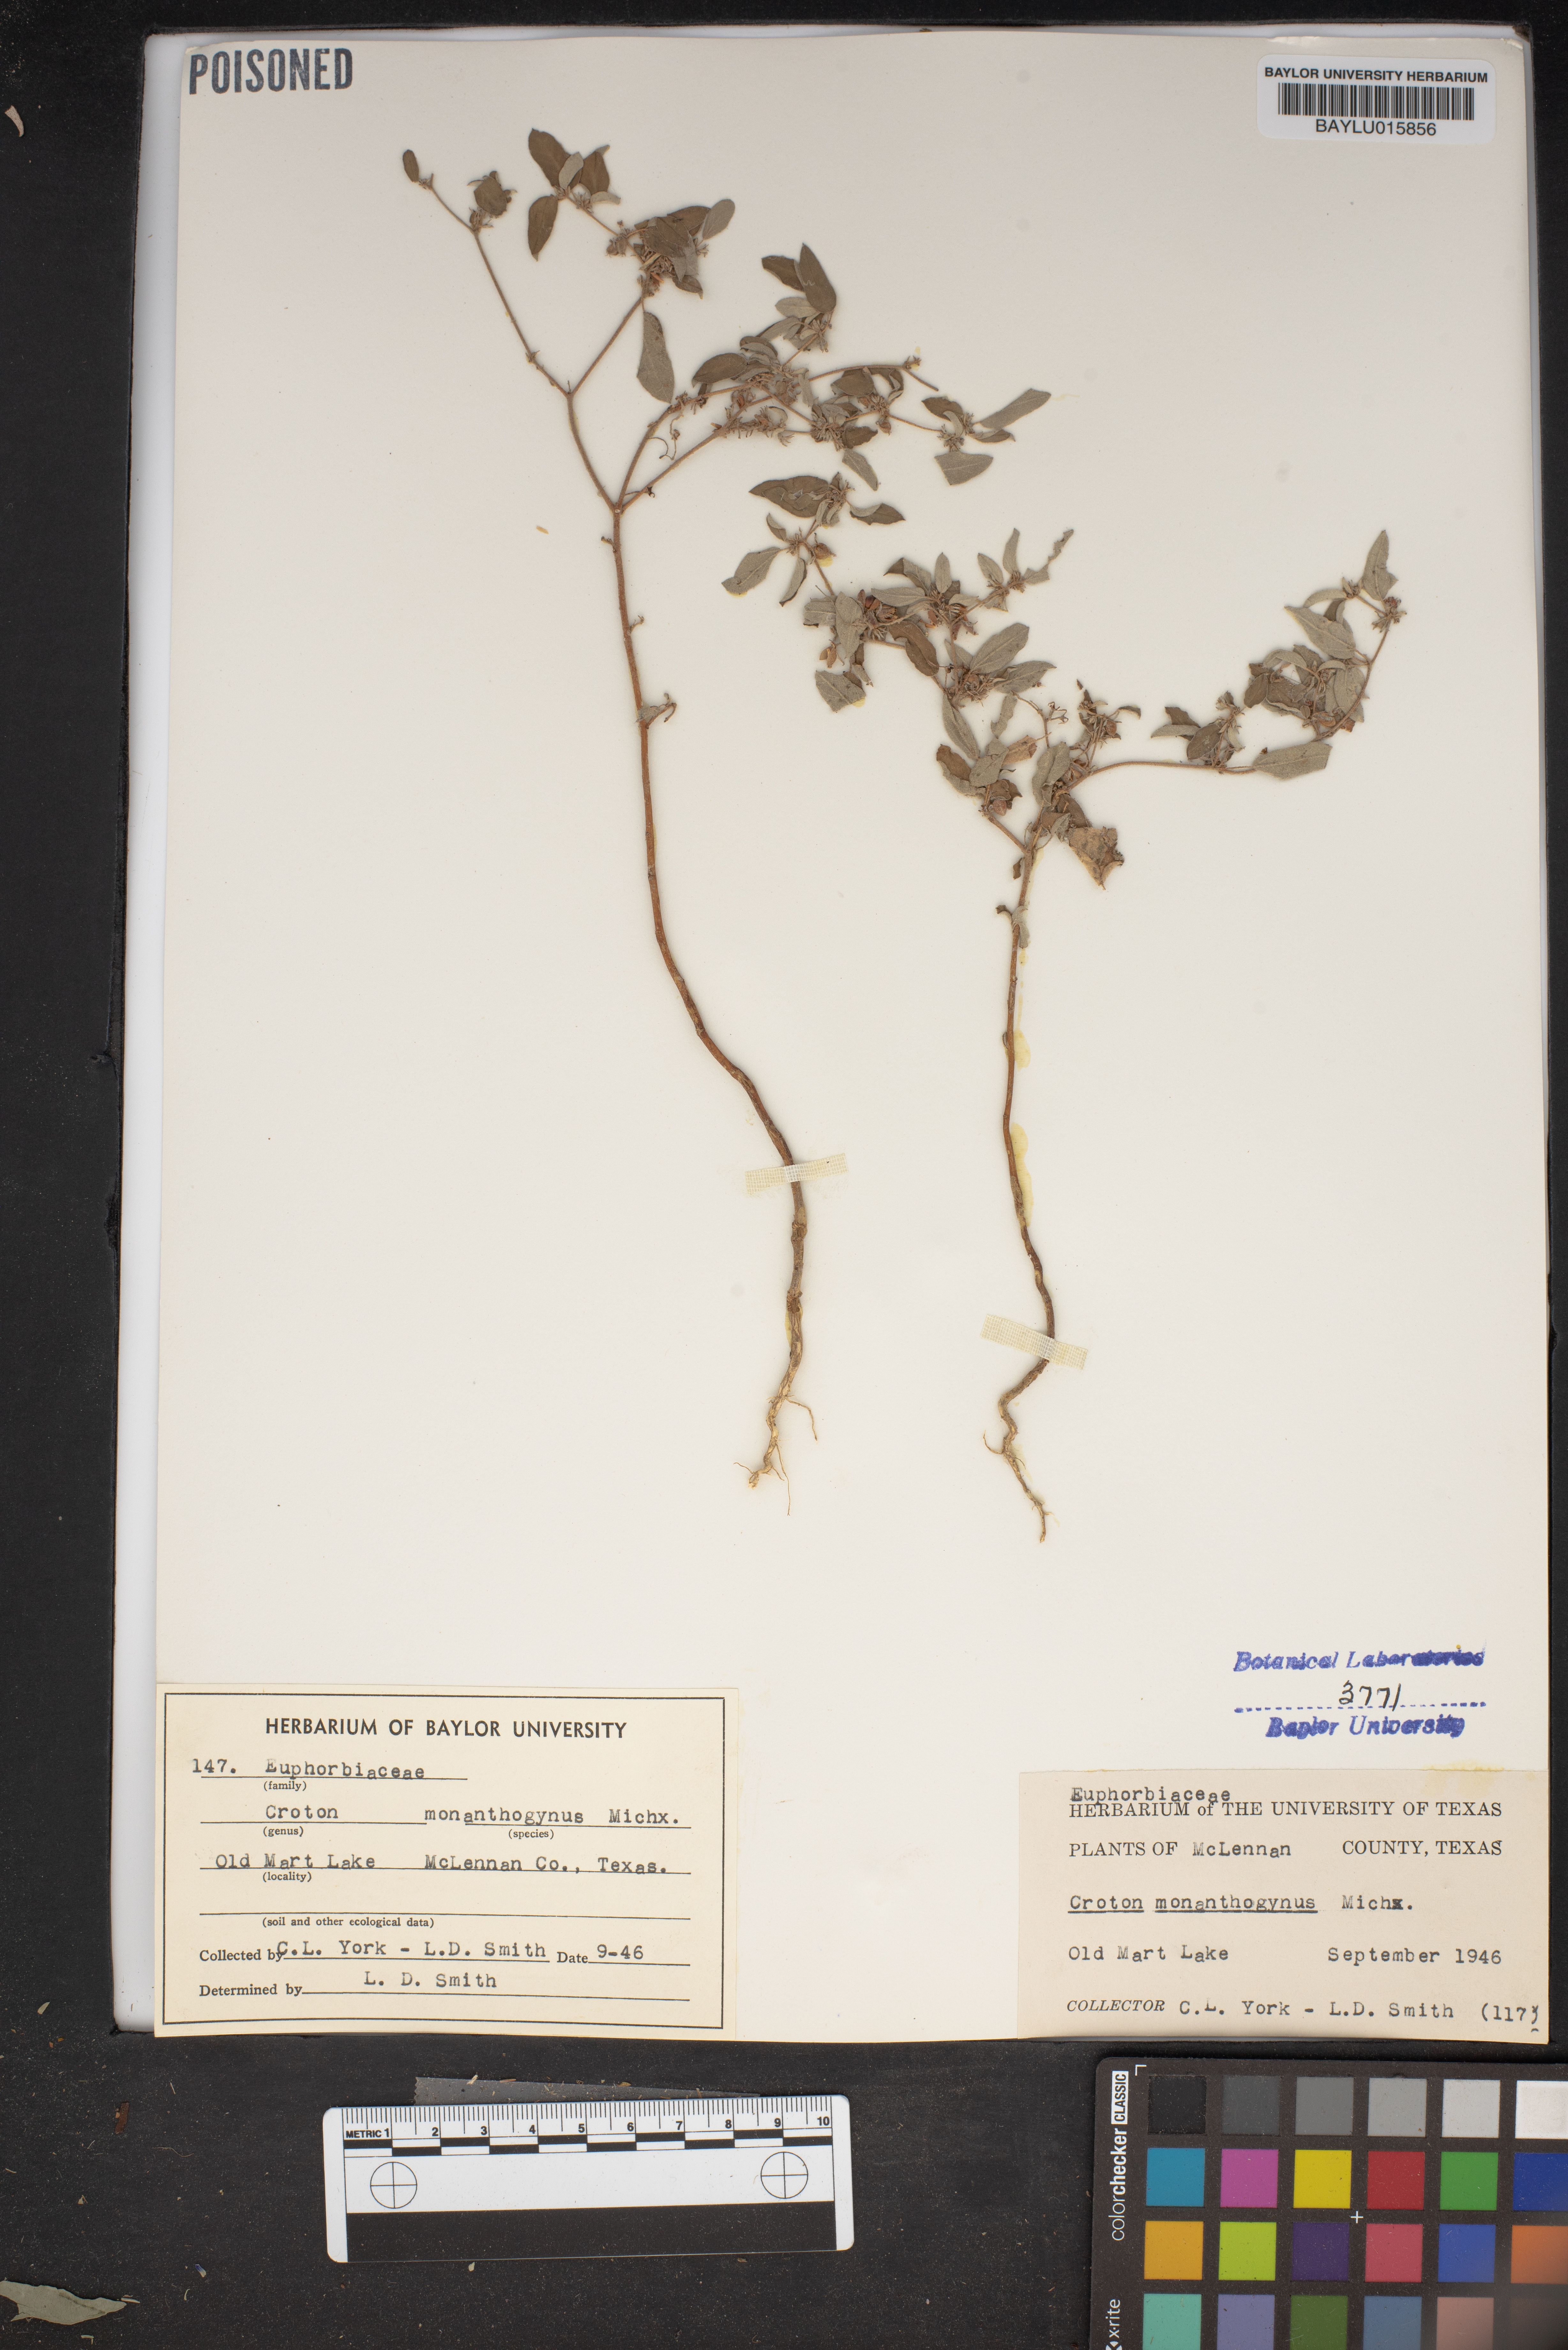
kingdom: Plantae
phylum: Tracheophyta
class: Magnoliopsida
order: Malpighiales
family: Euphorbiaceae
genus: Croton
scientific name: Croton monanthogynus
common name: One-seed croton
